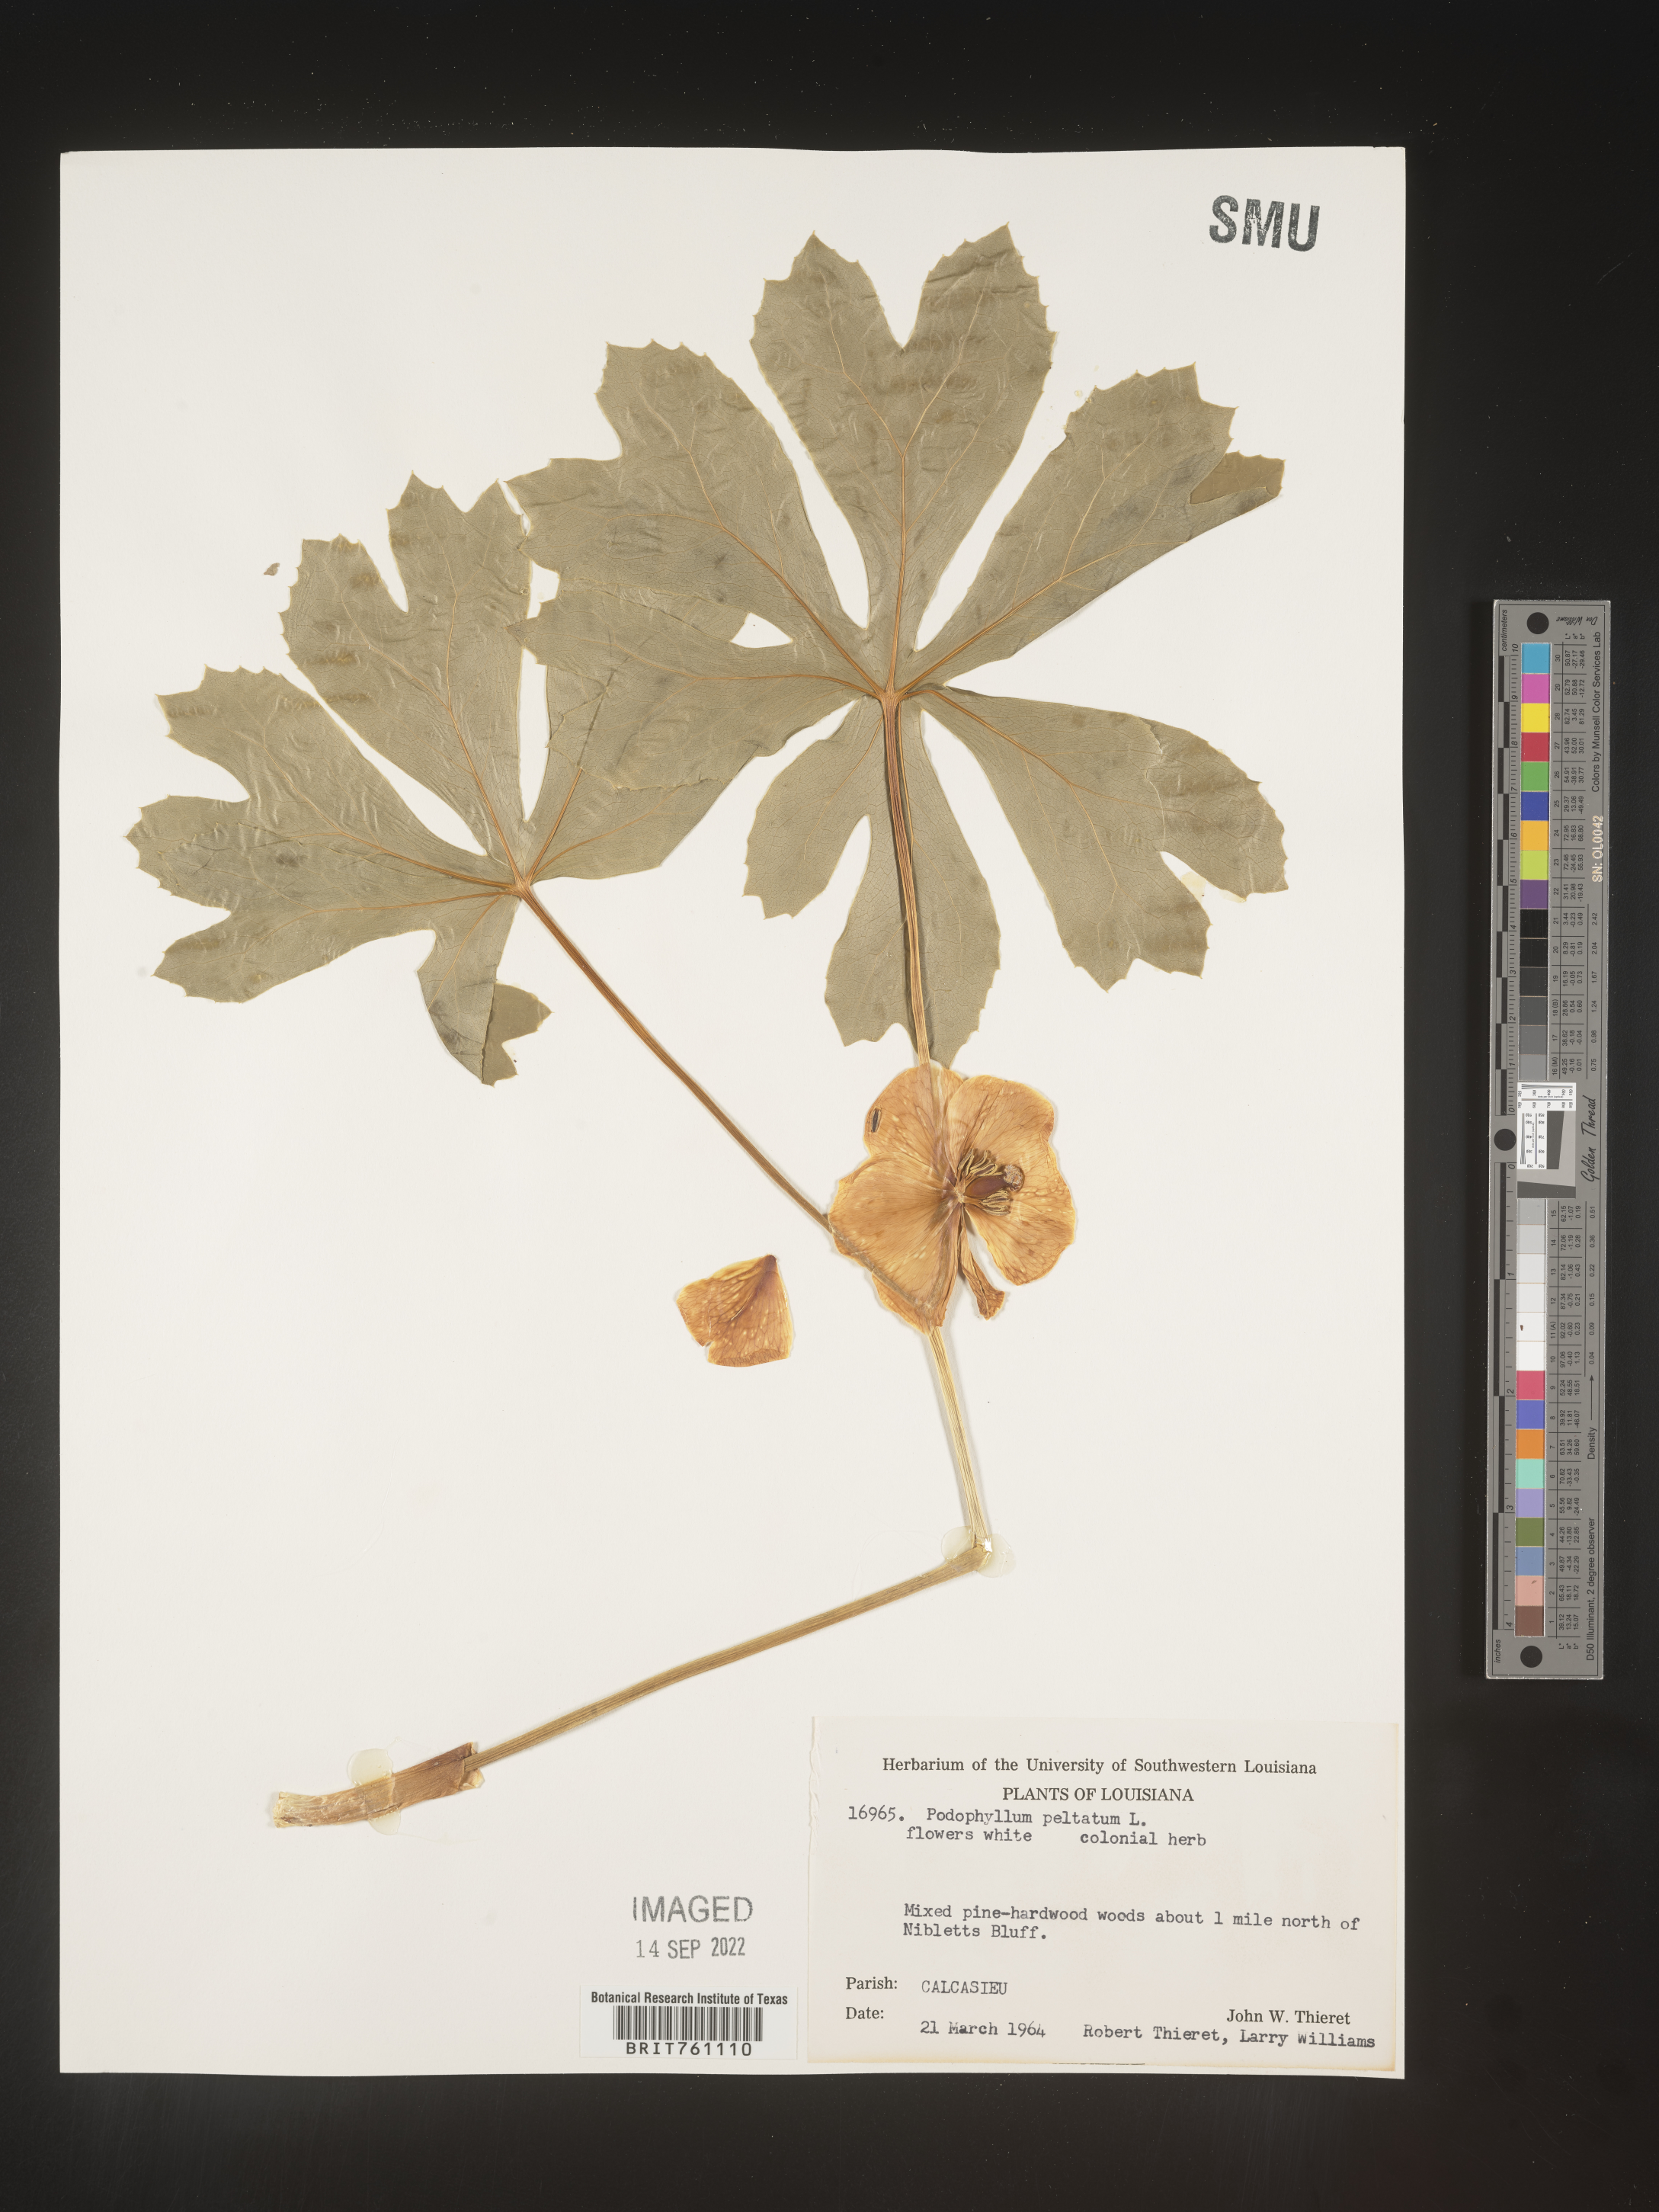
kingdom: Plantae
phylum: Tracheophyta
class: Magnoliopsida
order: Ranunculales
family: Berberidaceae
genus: Podophyllum
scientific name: Podophyllum peltatum
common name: Wild mandrake
